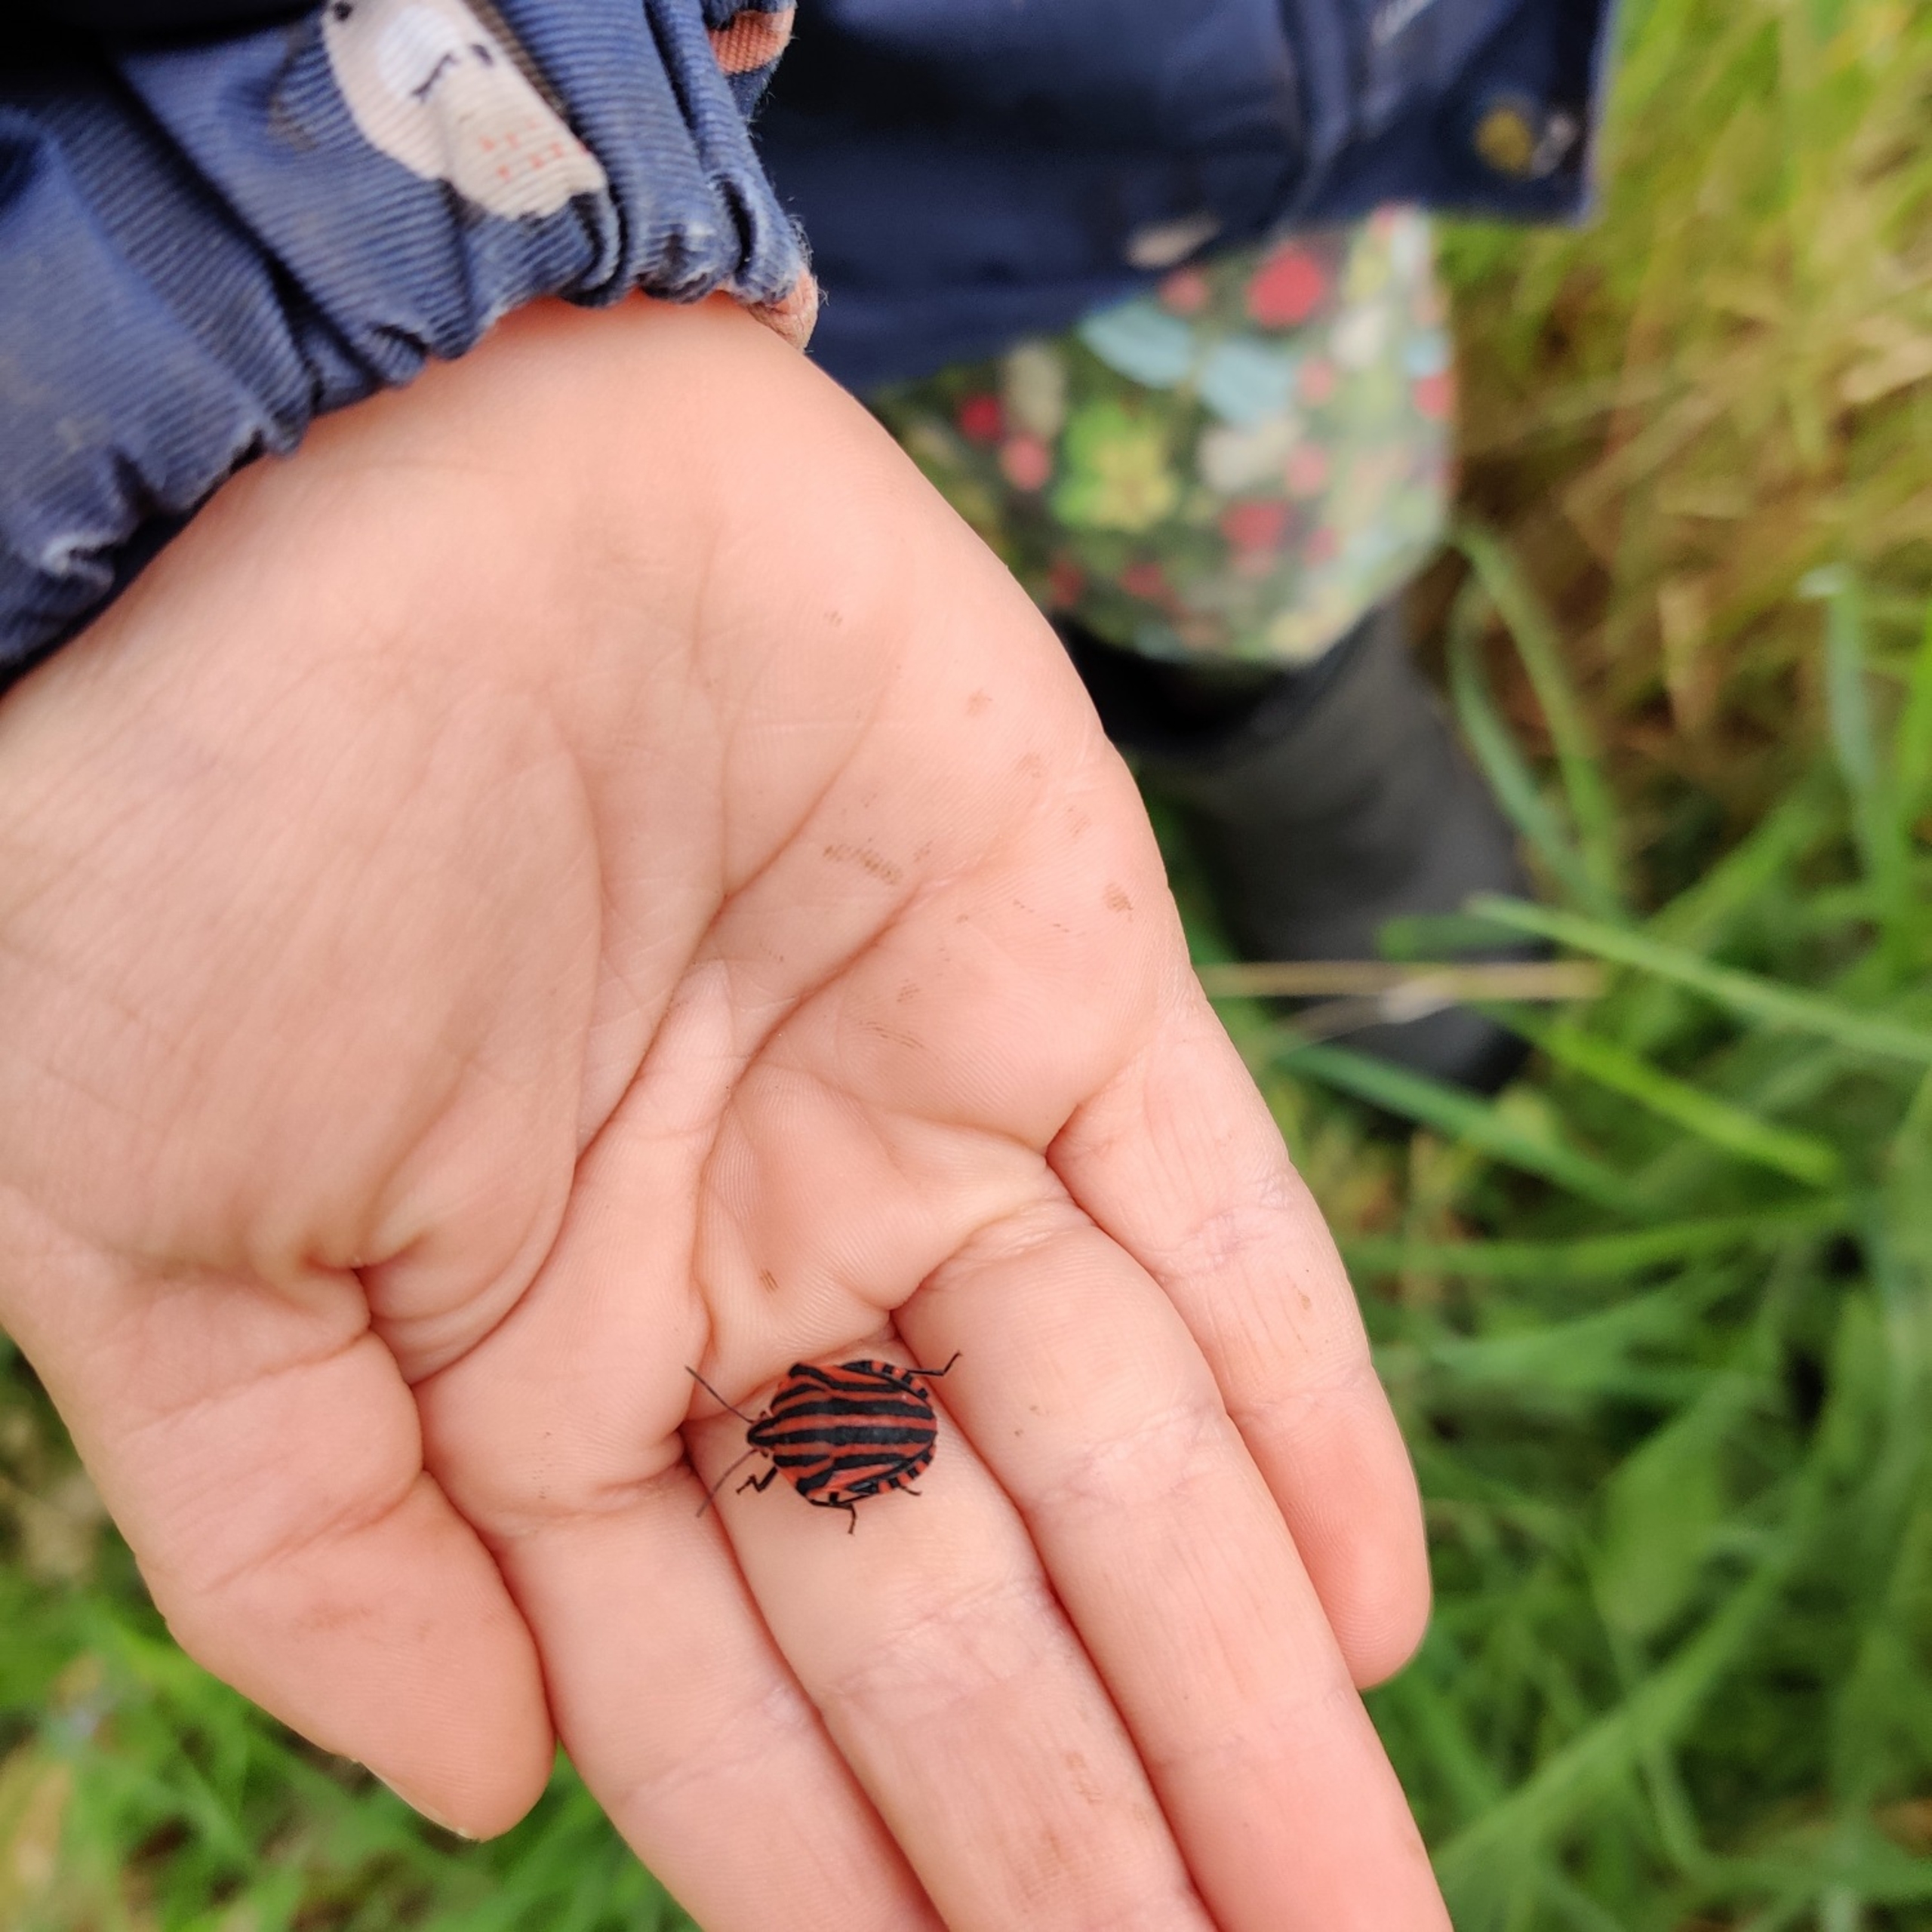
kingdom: Animalia
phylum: Arthropoda
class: Insecta
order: Hemiptera
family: Pentatomidae
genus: Graphosoma
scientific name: Graphosoma italicum
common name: Stribetæge
